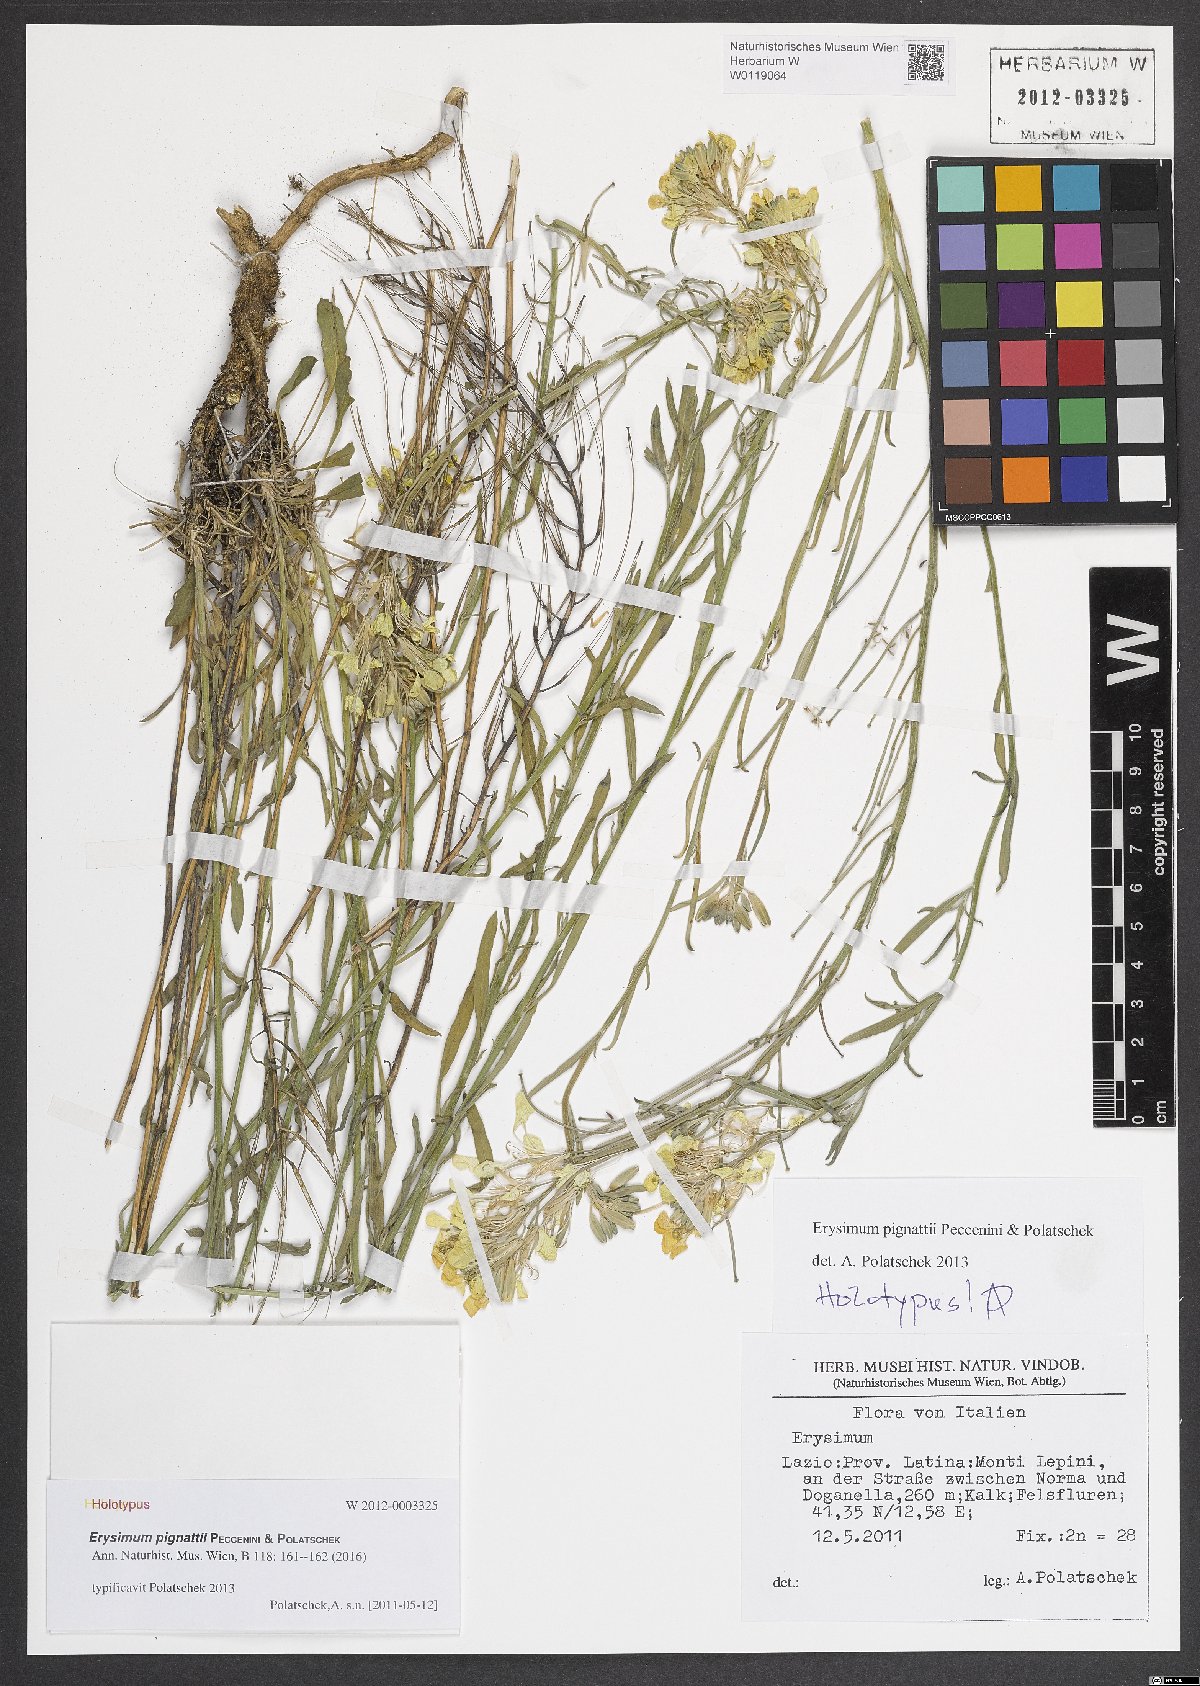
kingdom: Plantae
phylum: Tracheophyta
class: Magnoliopsida
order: Brassicales
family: Brassicaceae
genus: Erysimum
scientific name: Erysimum pignattii
